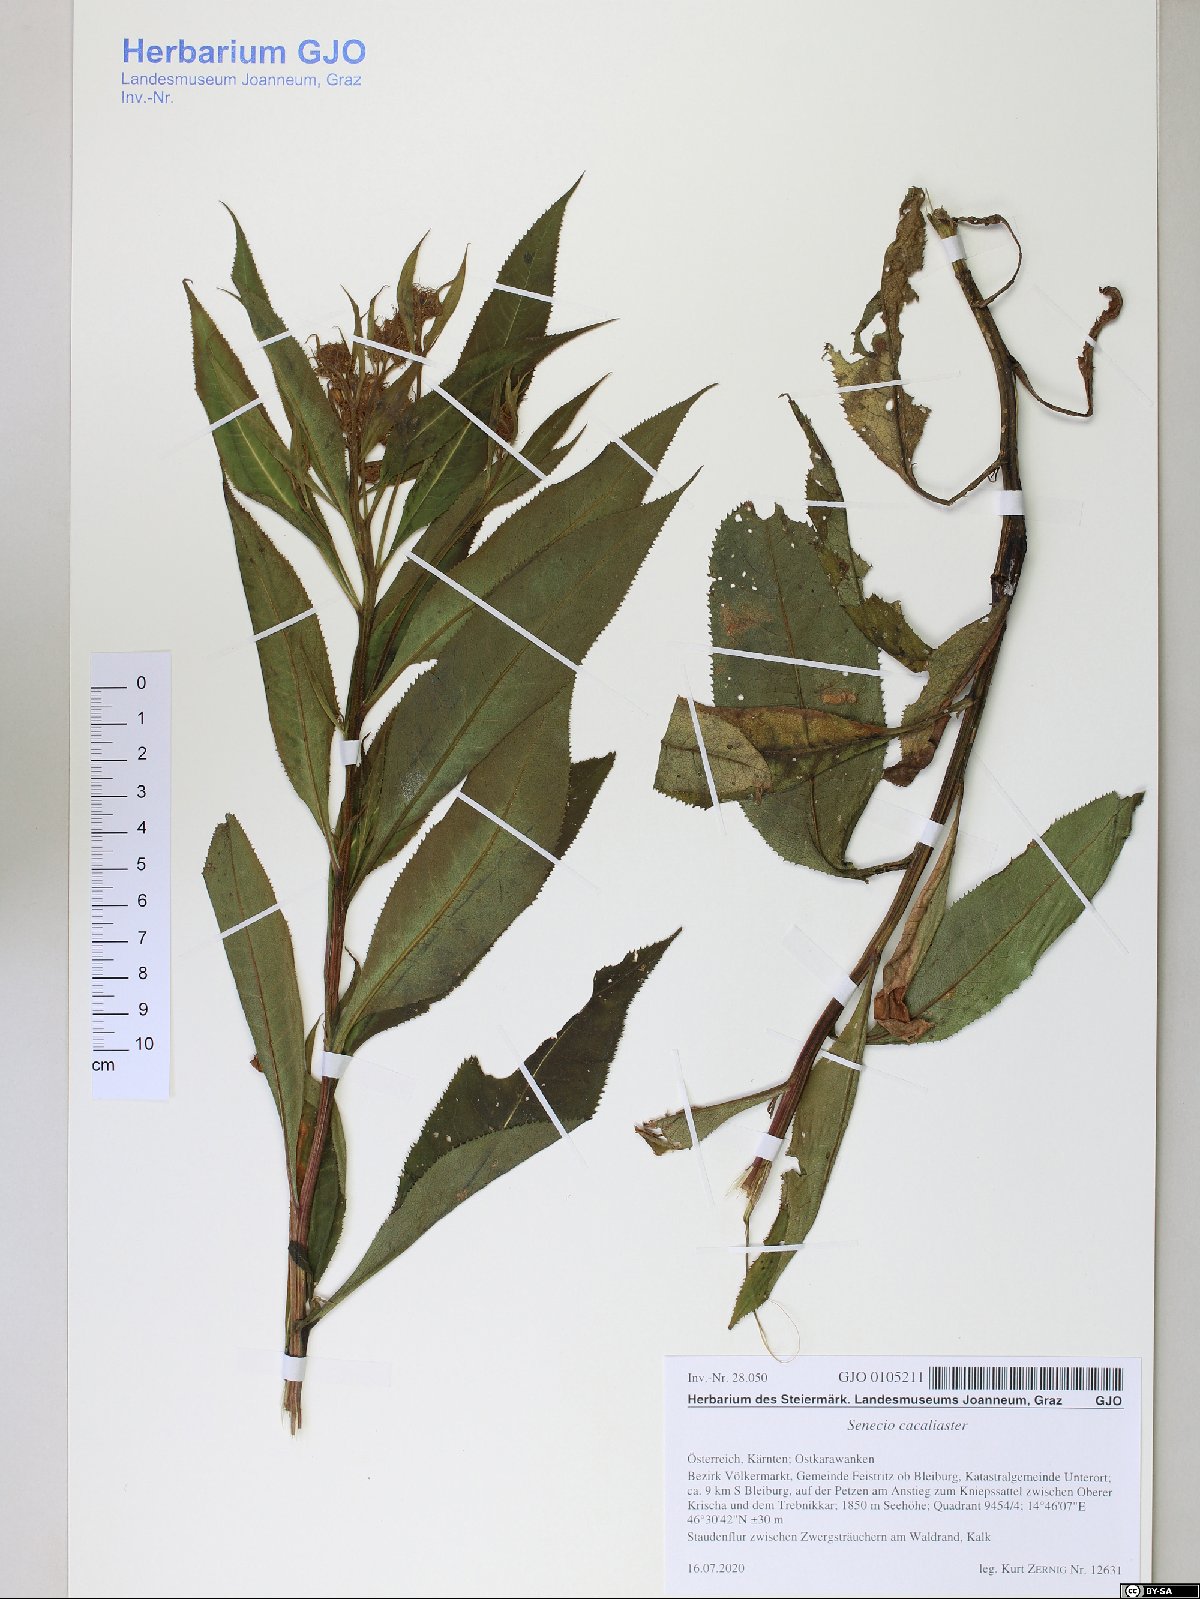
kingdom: Plantae
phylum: Tracheophyta
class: Magnoliopsida
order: Asterales
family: Asteraceae
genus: Senecio
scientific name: Senecio cacaliaster
